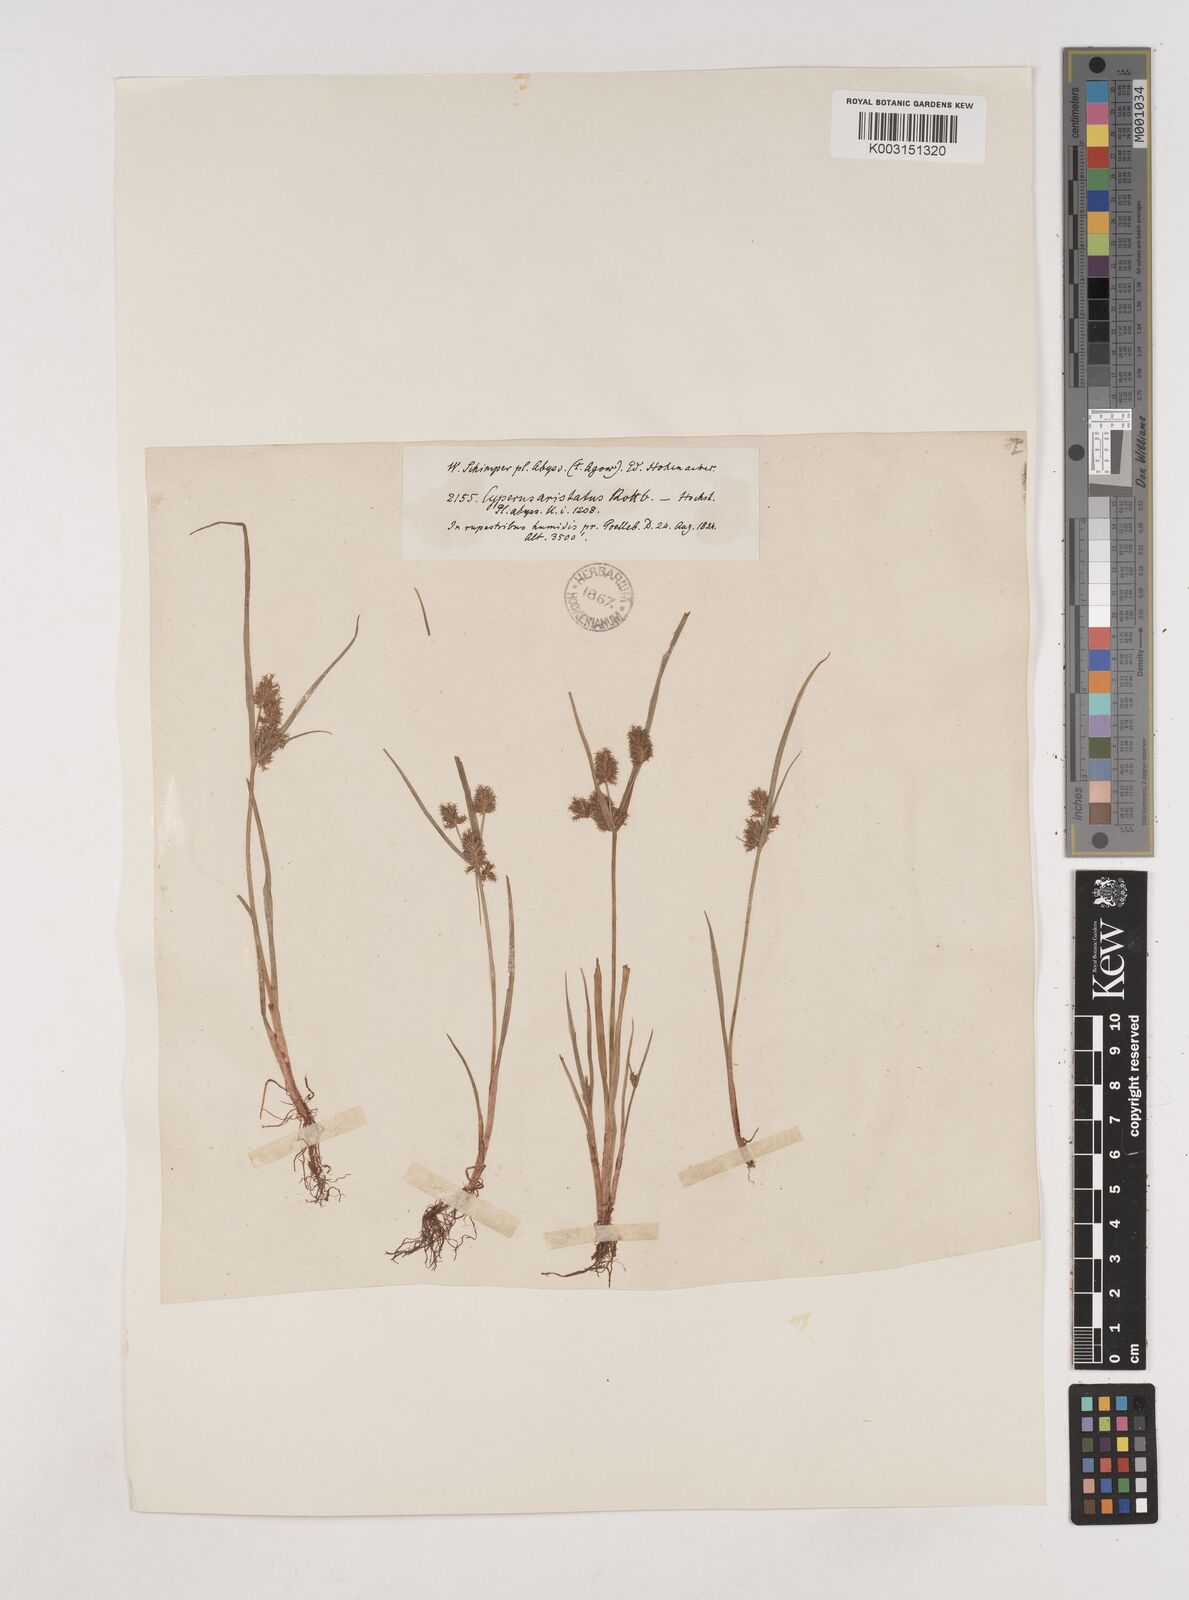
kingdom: Plantae
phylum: Tracheophyta
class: Liliopsida
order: Poales
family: Cyperaceae
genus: Cyperus
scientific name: Cyperus squarrosus
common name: Awned cyperus
